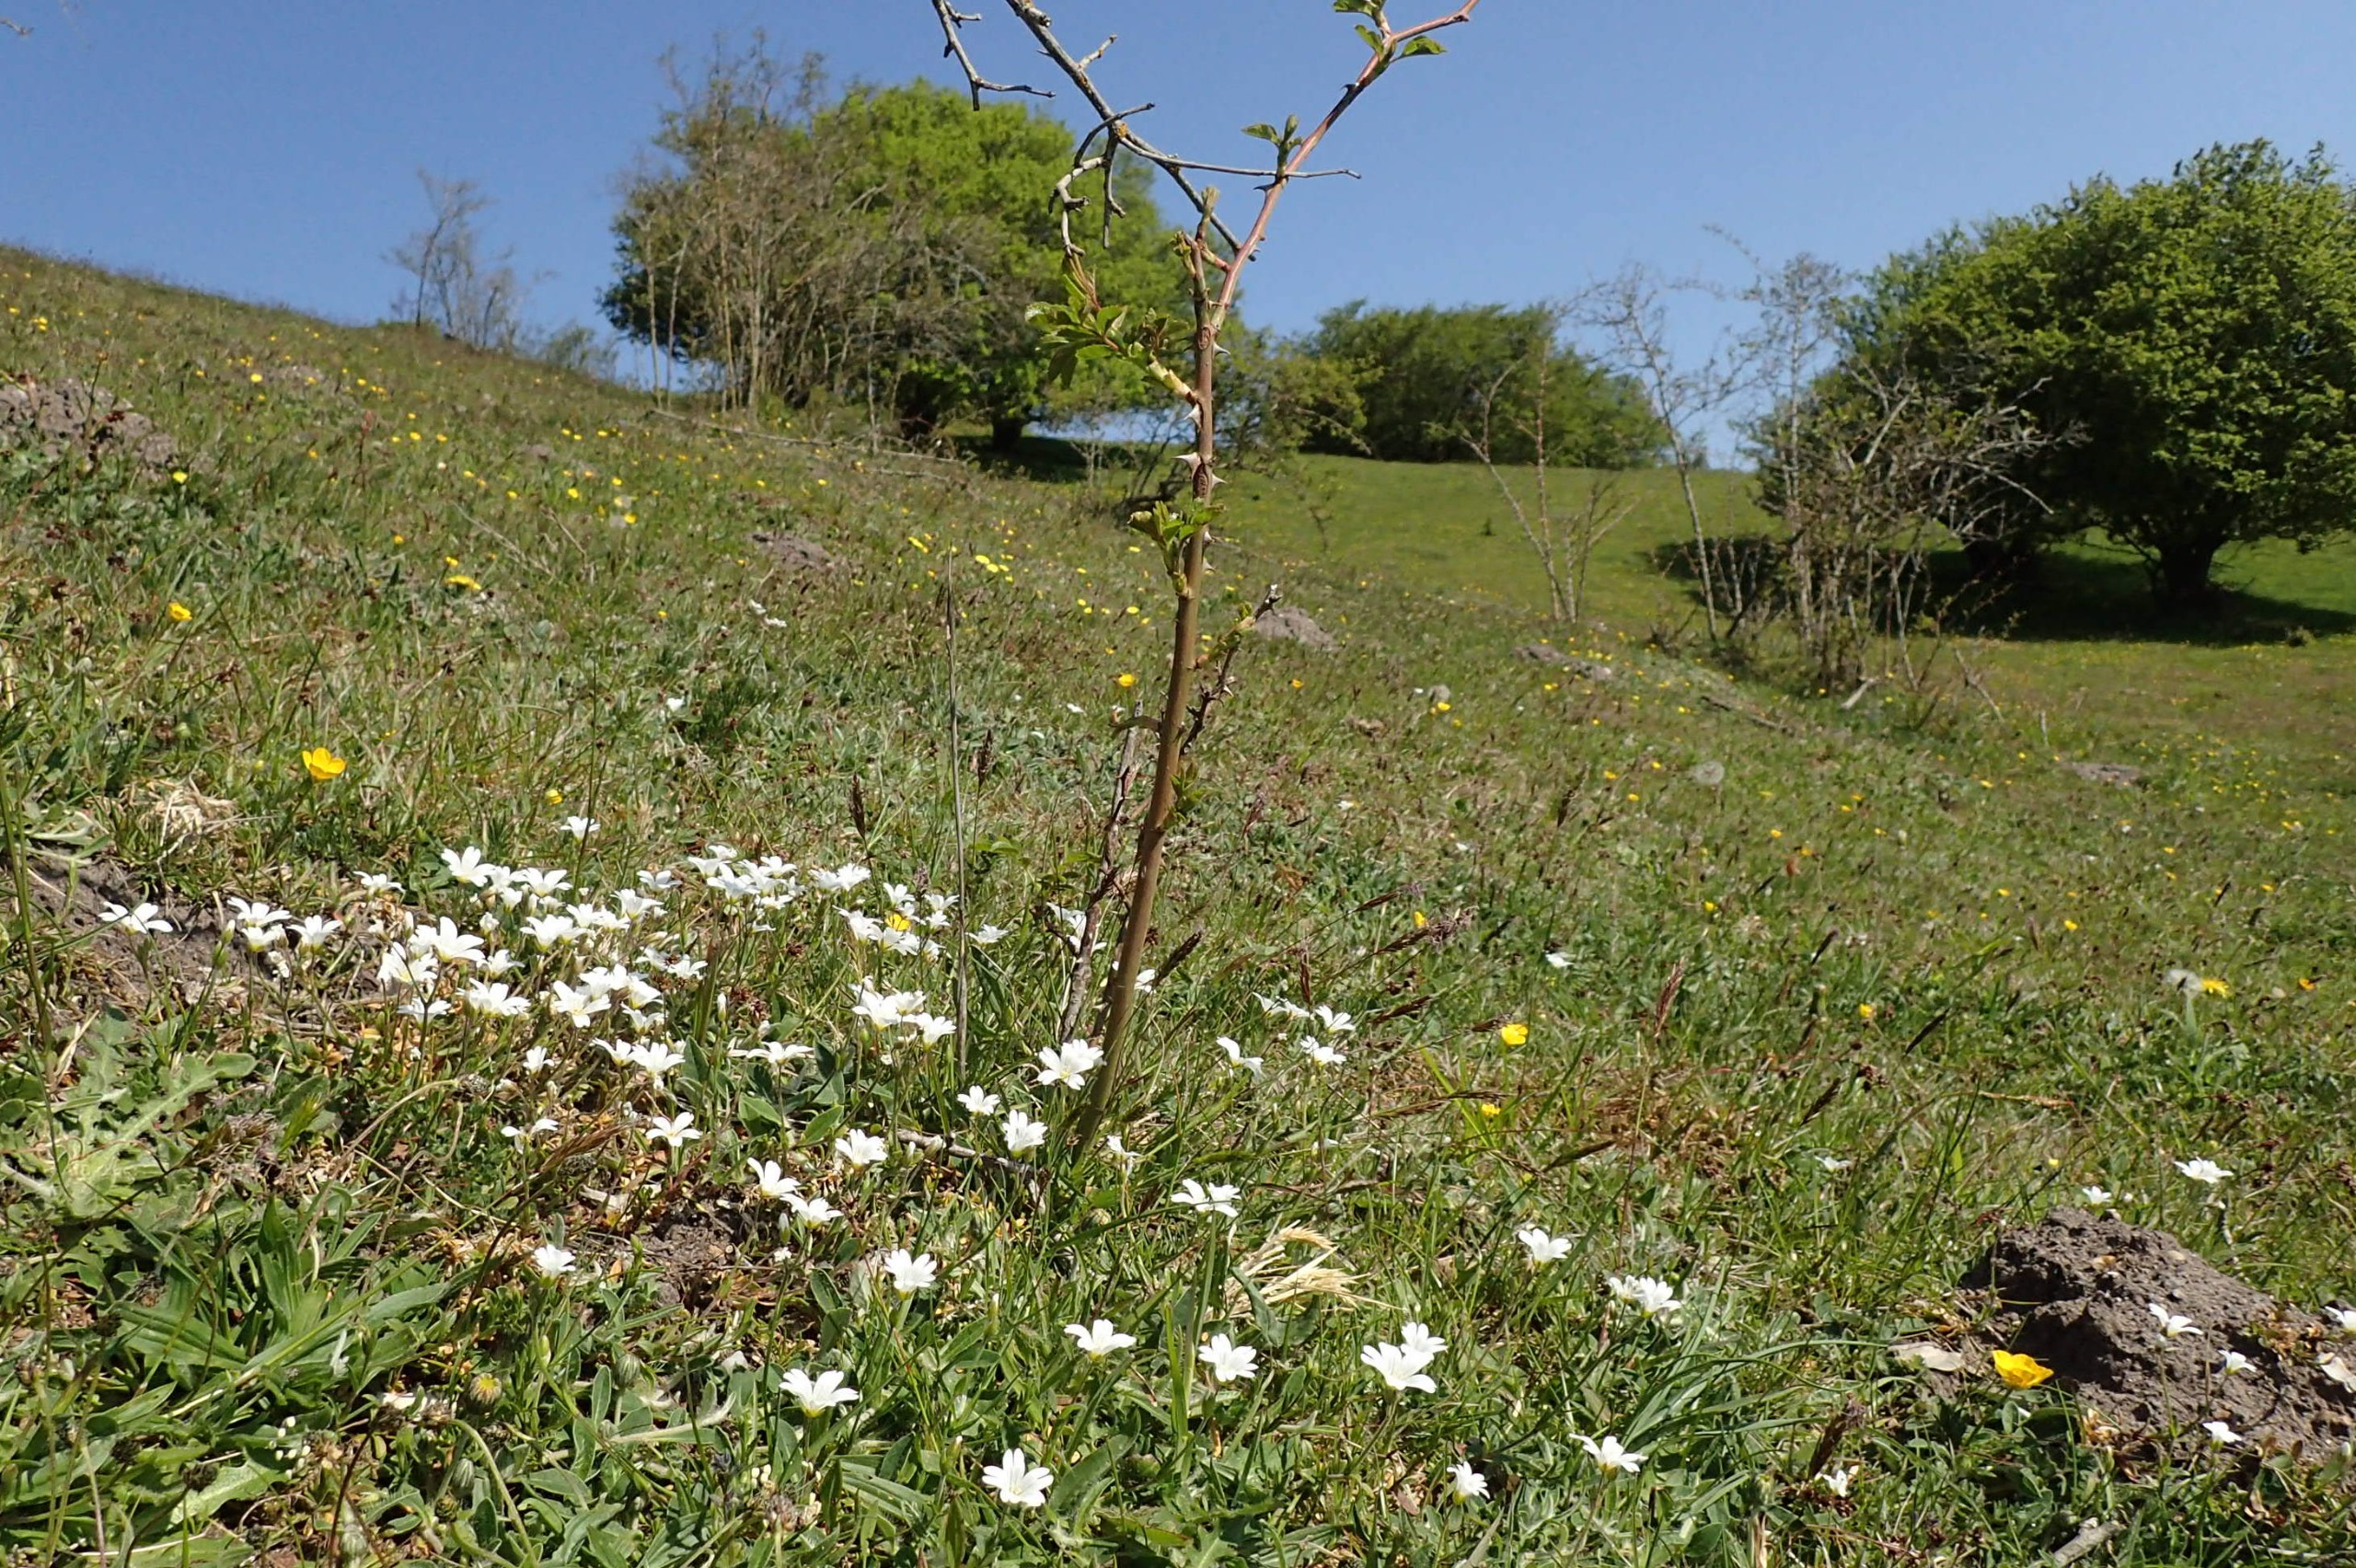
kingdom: Plantae
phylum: Tracheophyta
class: Magnoliopsida
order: Caryophyllales
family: Caryophyllaceae
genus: Cerastium
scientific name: Cerastium arvense
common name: Storblomstret hønsetarm
